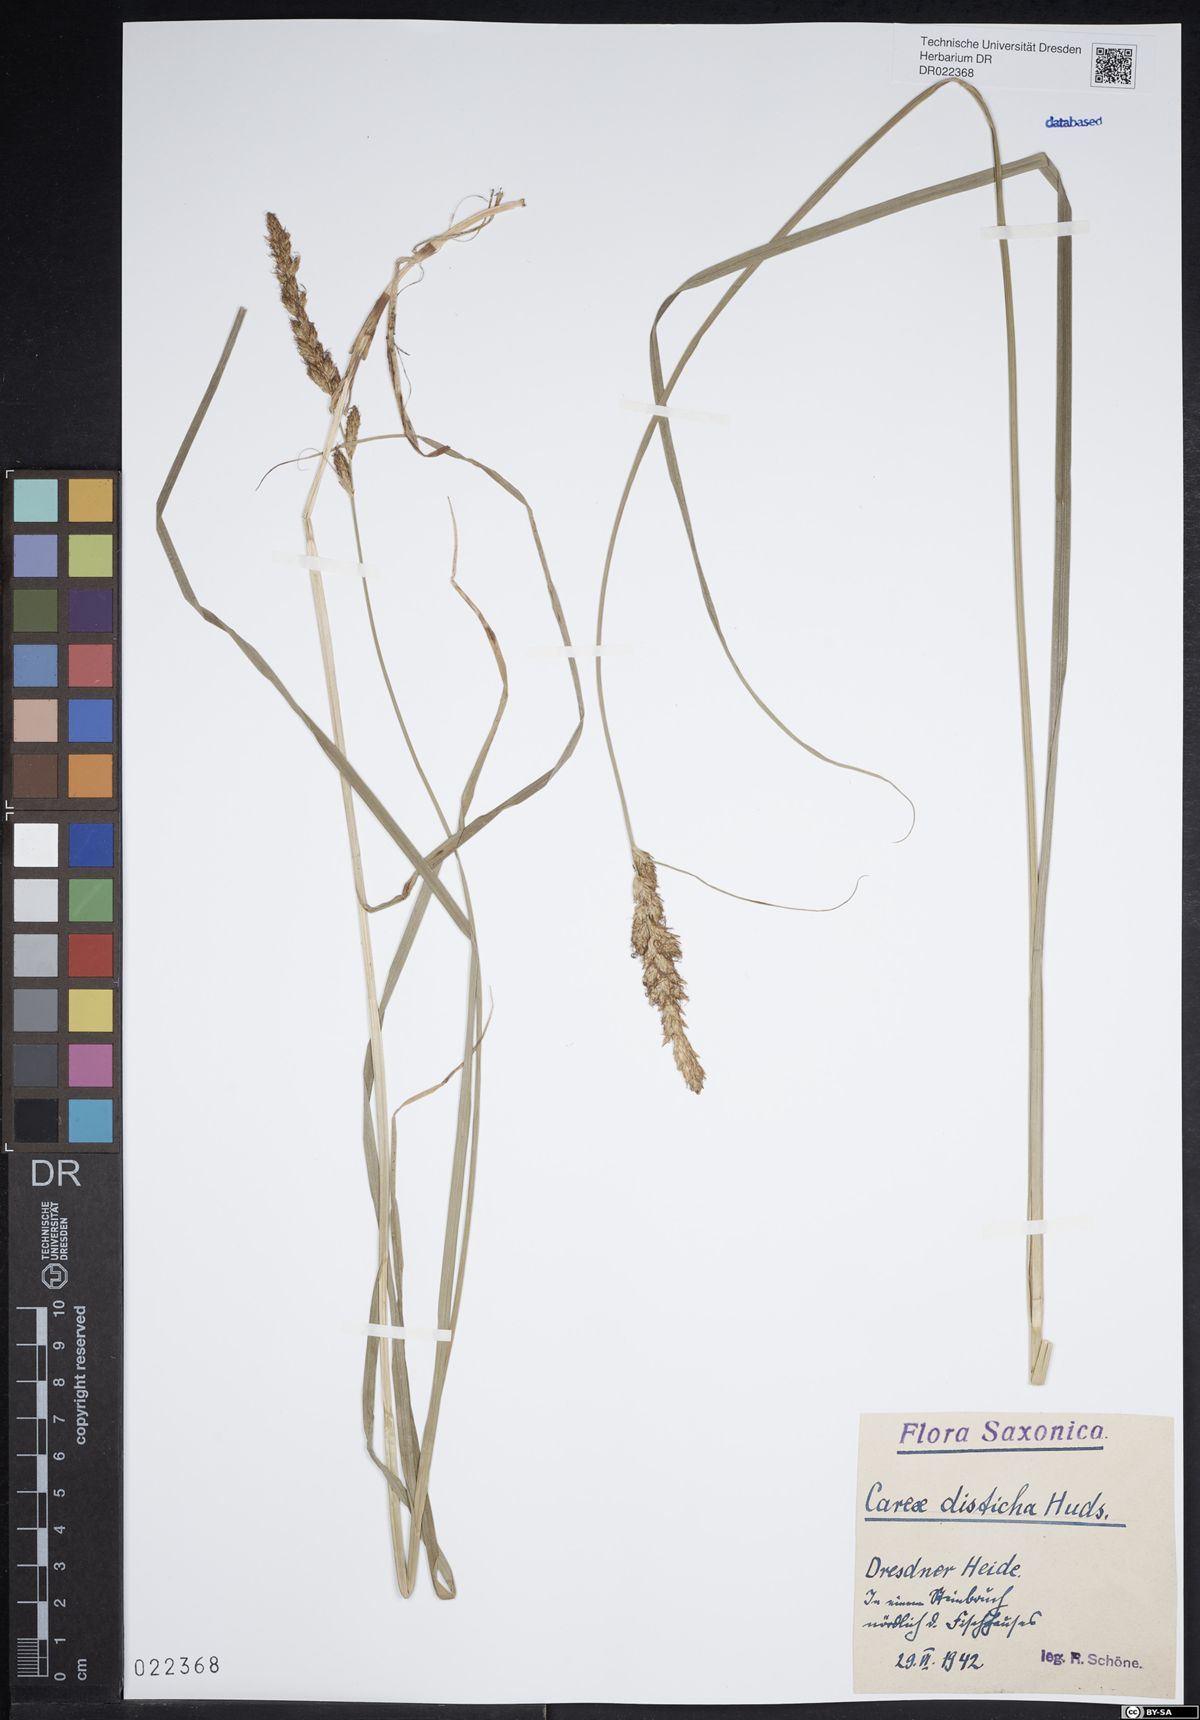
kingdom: Plantae
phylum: Tracheophyta
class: Liliopsida
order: Poales
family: Cyperaceae
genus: Carex
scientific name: Carex disticha
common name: Brown sedge
